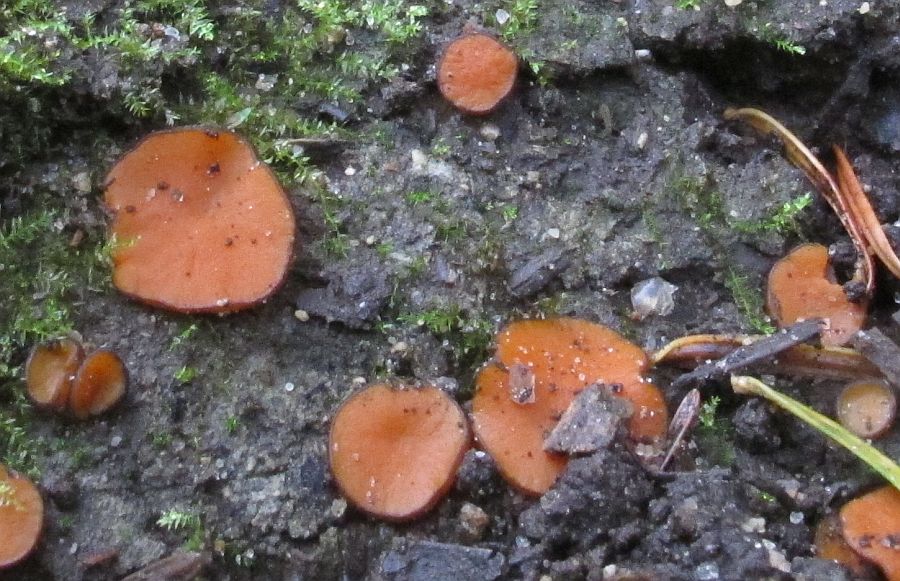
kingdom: Fungi
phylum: Ascomycota
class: Pezizomycetes
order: Pezizales
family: Pyronemataceae
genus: Melastiza
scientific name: Melastiza cornubiensis
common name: mørkrandet rødbæger
